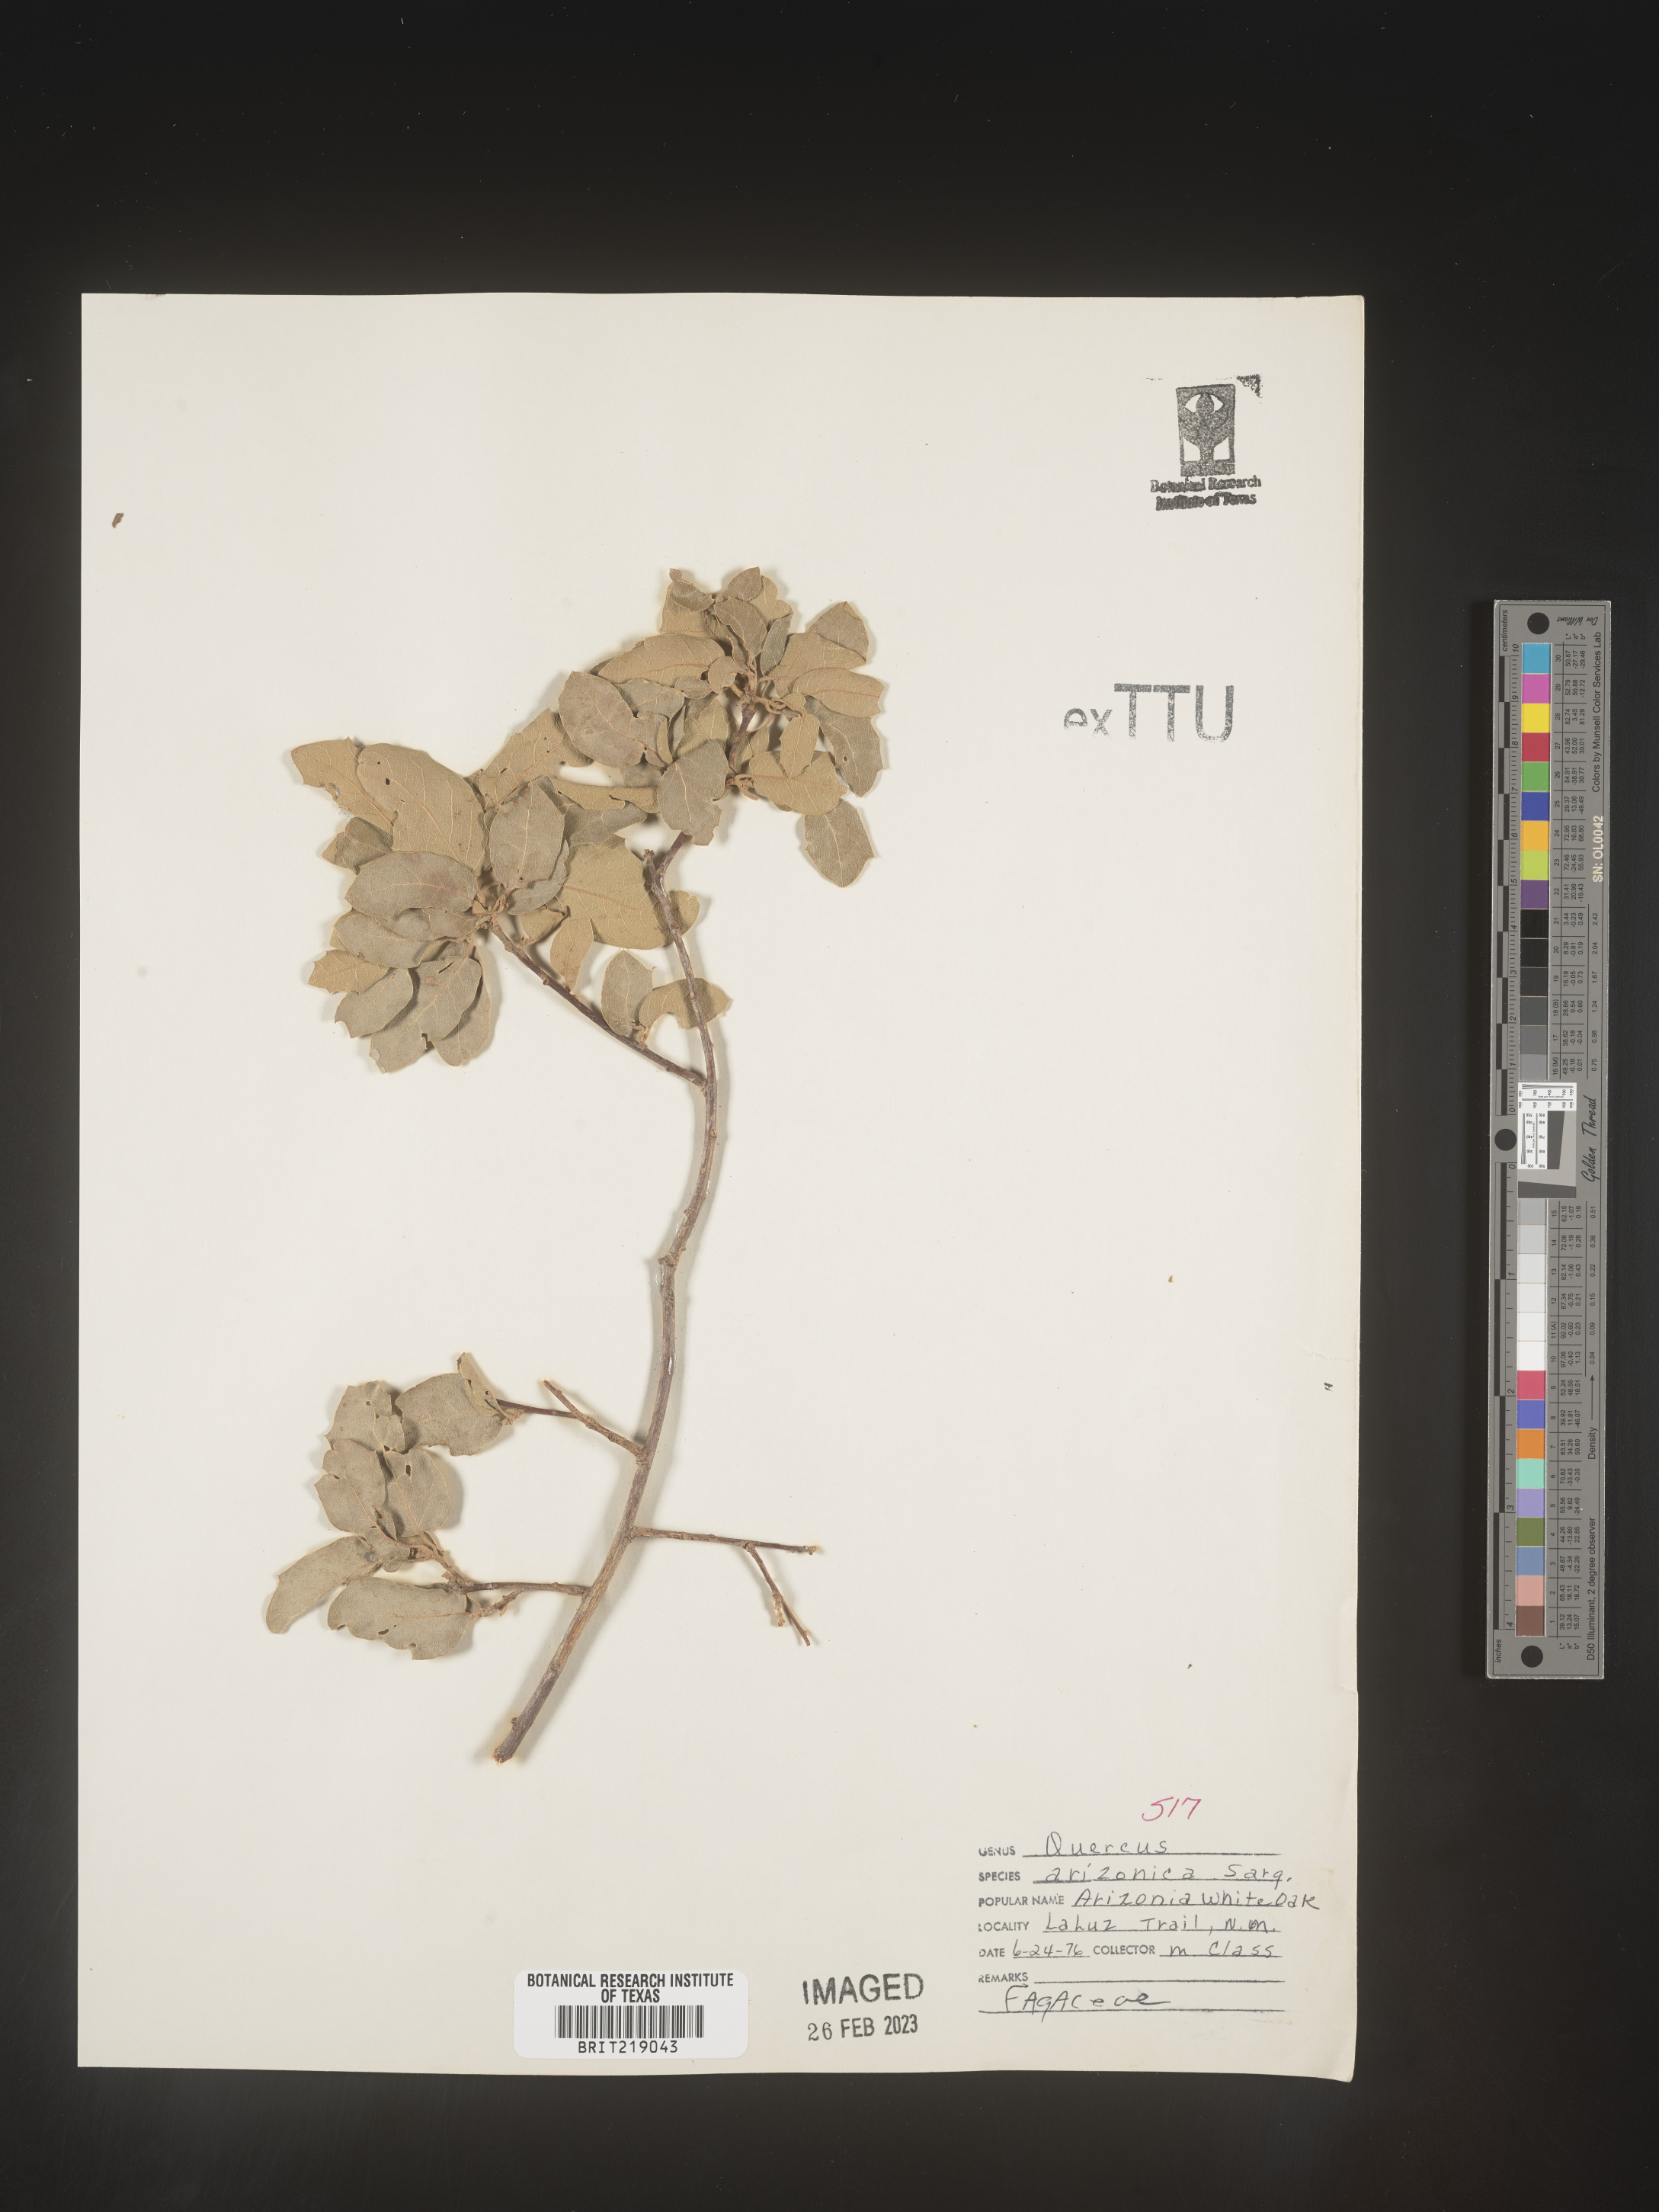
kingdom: Plantae
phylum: Tracheophyta
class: Magnoliopsida
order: Fagales
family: Fagaceae
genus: Quercus
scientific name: Quercus arizonica
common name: Arizona white oak
